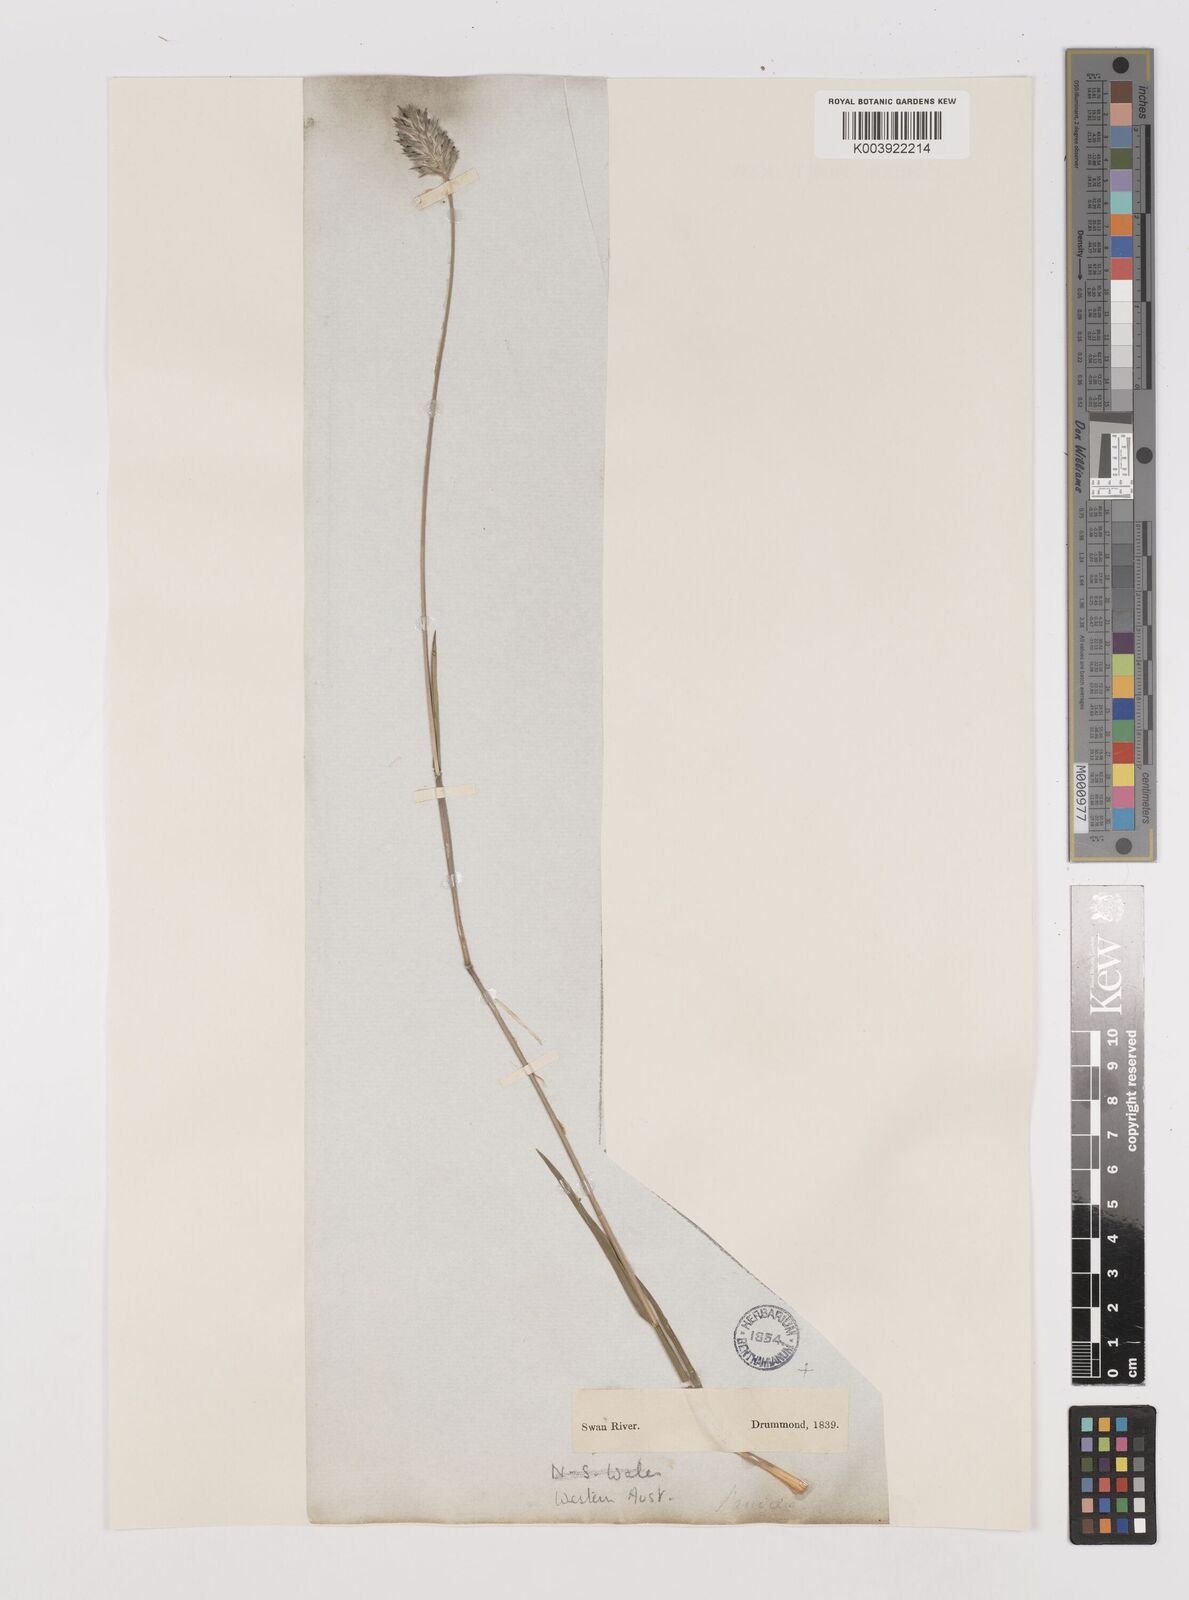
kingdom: Plantae
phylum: Tracheophyta
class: Liliopsida
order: Poales
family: Poaceae
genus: Neurachne
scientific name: Neurachne alopecuroidea
